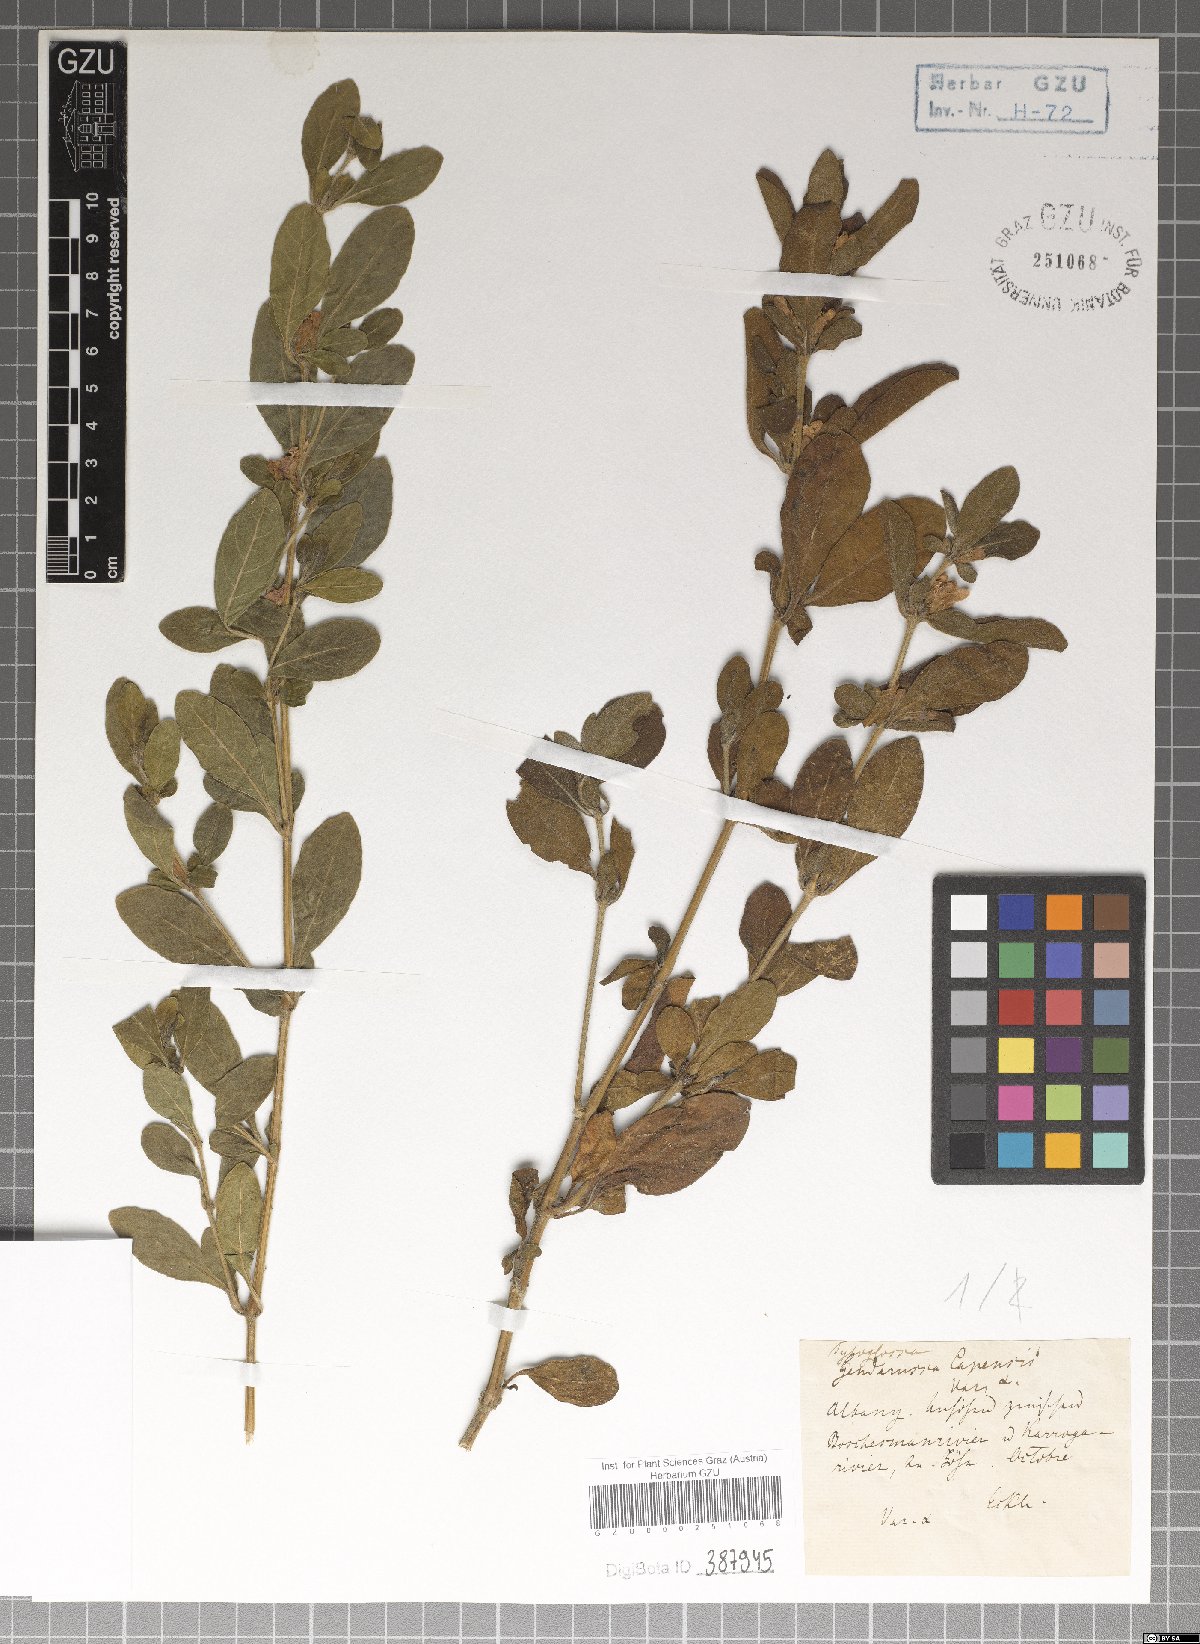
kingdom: Plantae
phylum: Tracheophyta
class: Magnoliopsida
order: Lamiales
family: Acanthaceae
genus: Justicia
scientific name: Justicia capensis
